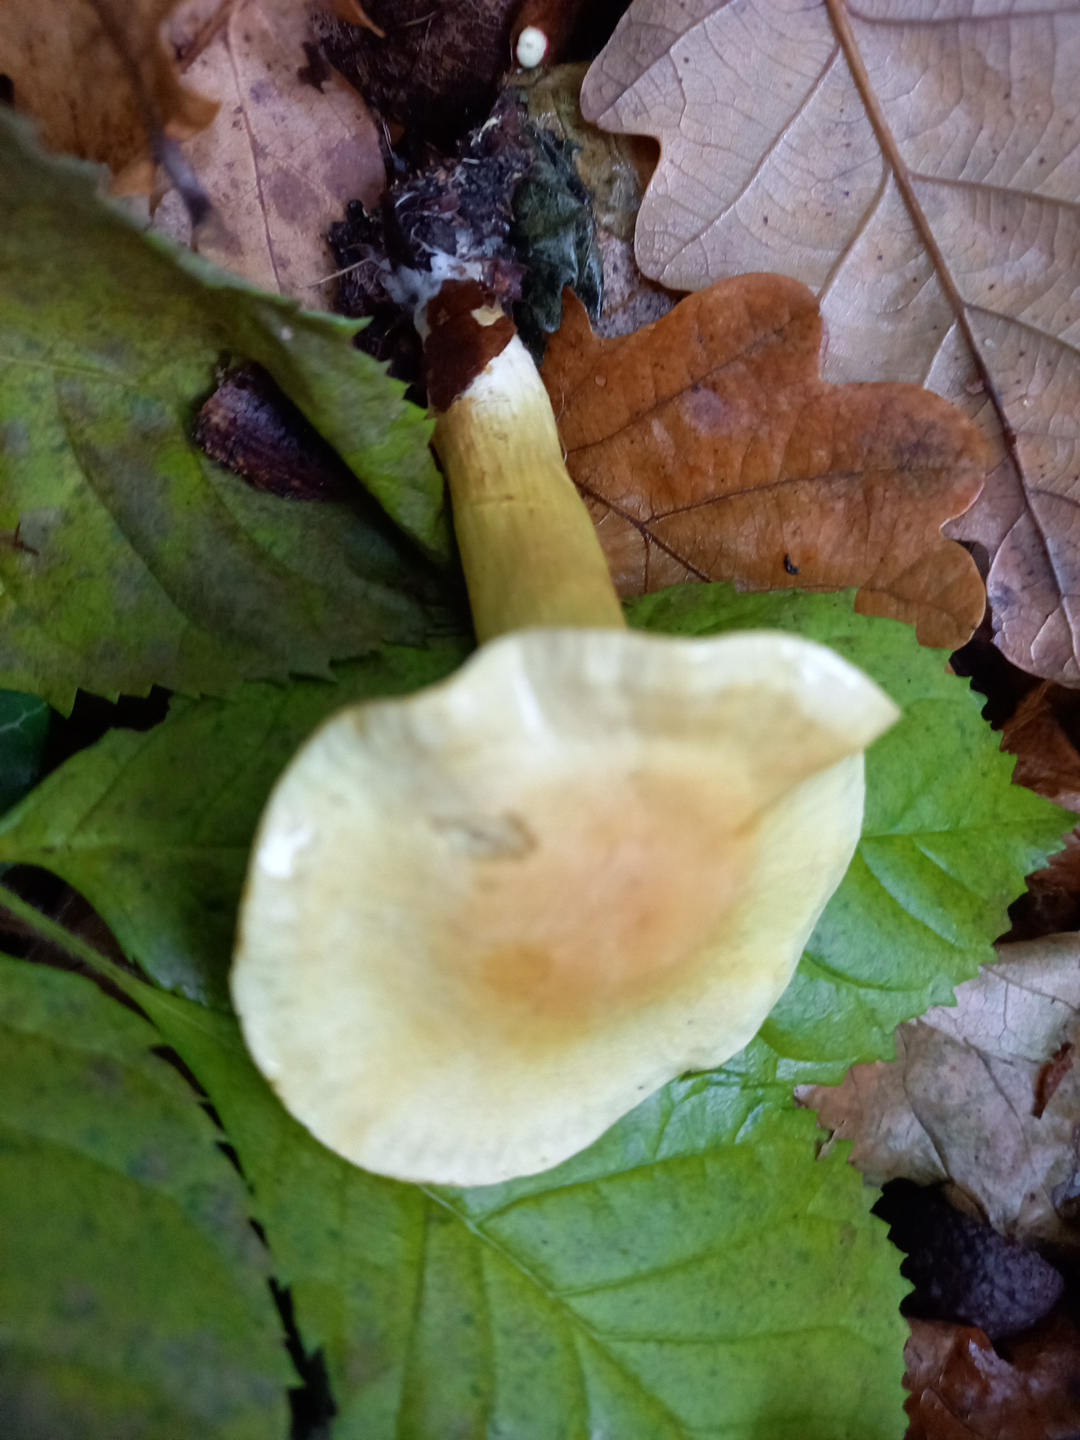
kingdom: Fungi
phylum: Basidiomycota
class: Agaricomycetes
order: Agaricales
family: Tricholomataceae
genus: Tricholoma
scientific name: Tricholoma sulphureum
